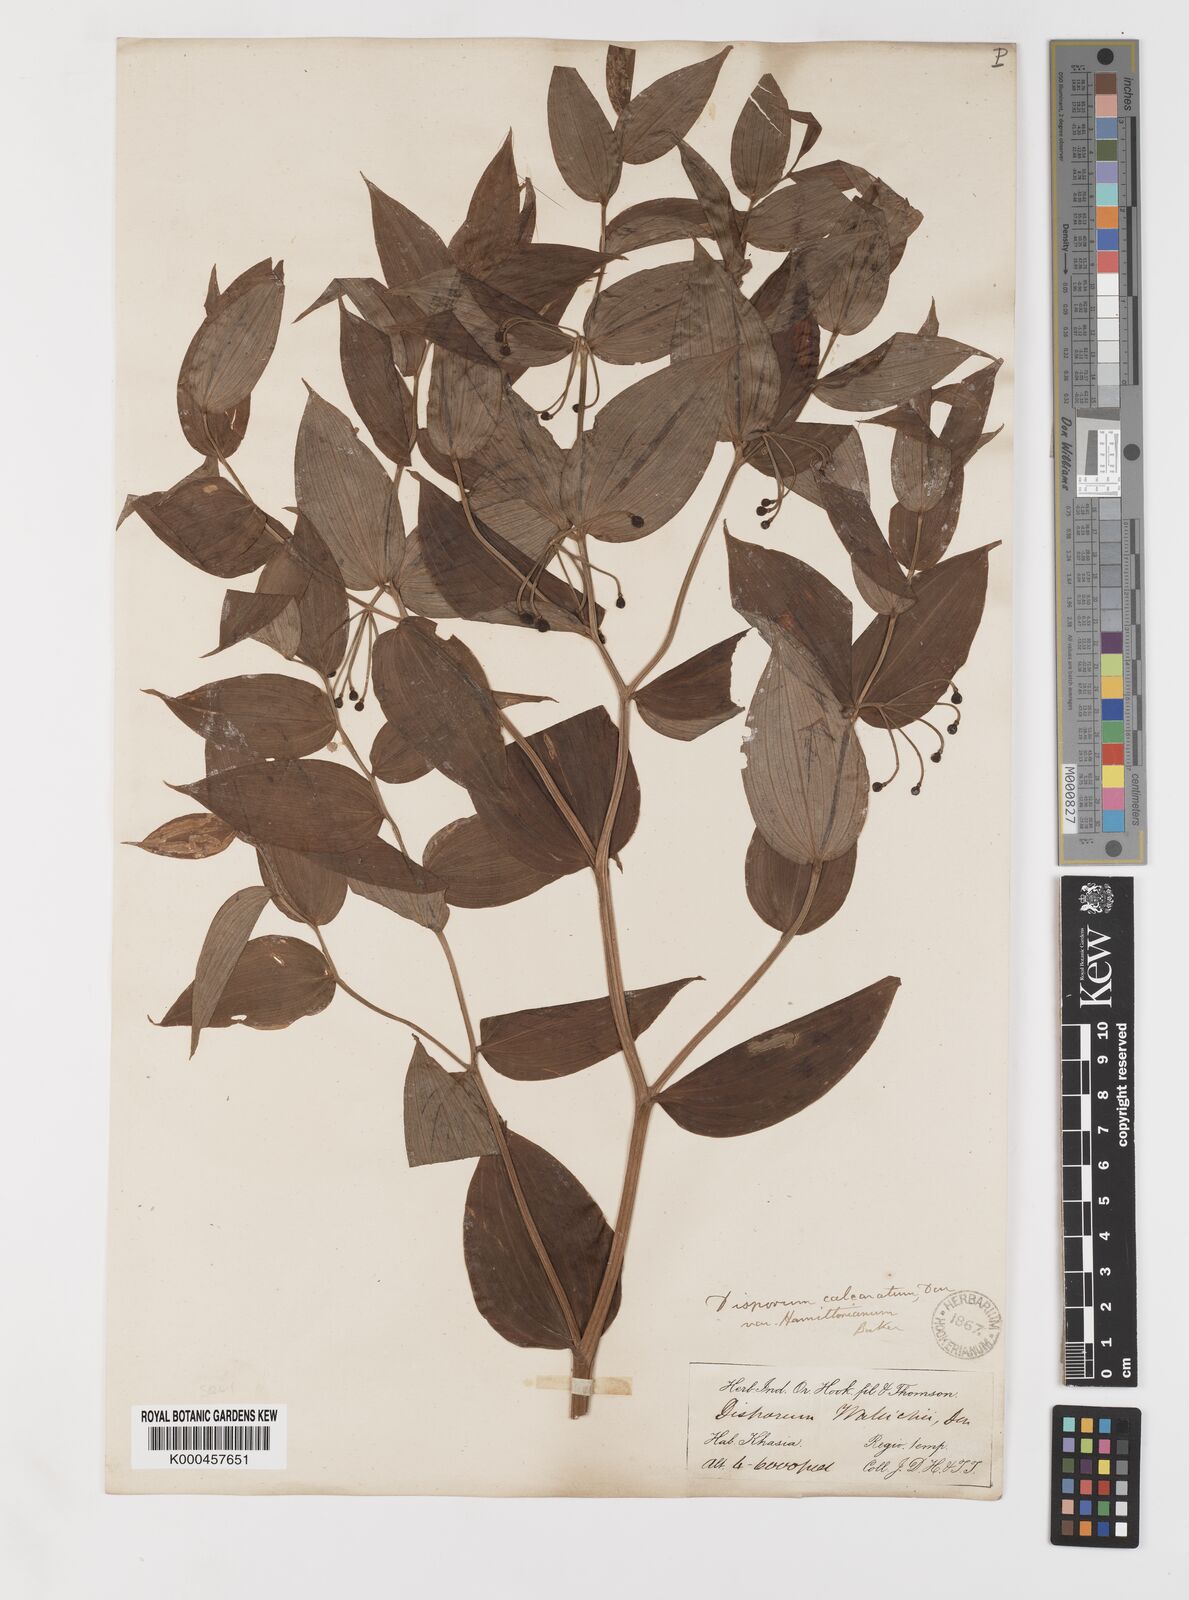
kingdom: Plantae
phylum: Tracheophyta
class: Liliopsida
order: Liliales
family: Colchicaceae
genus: Disporum
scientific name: Disporum calcaratum
